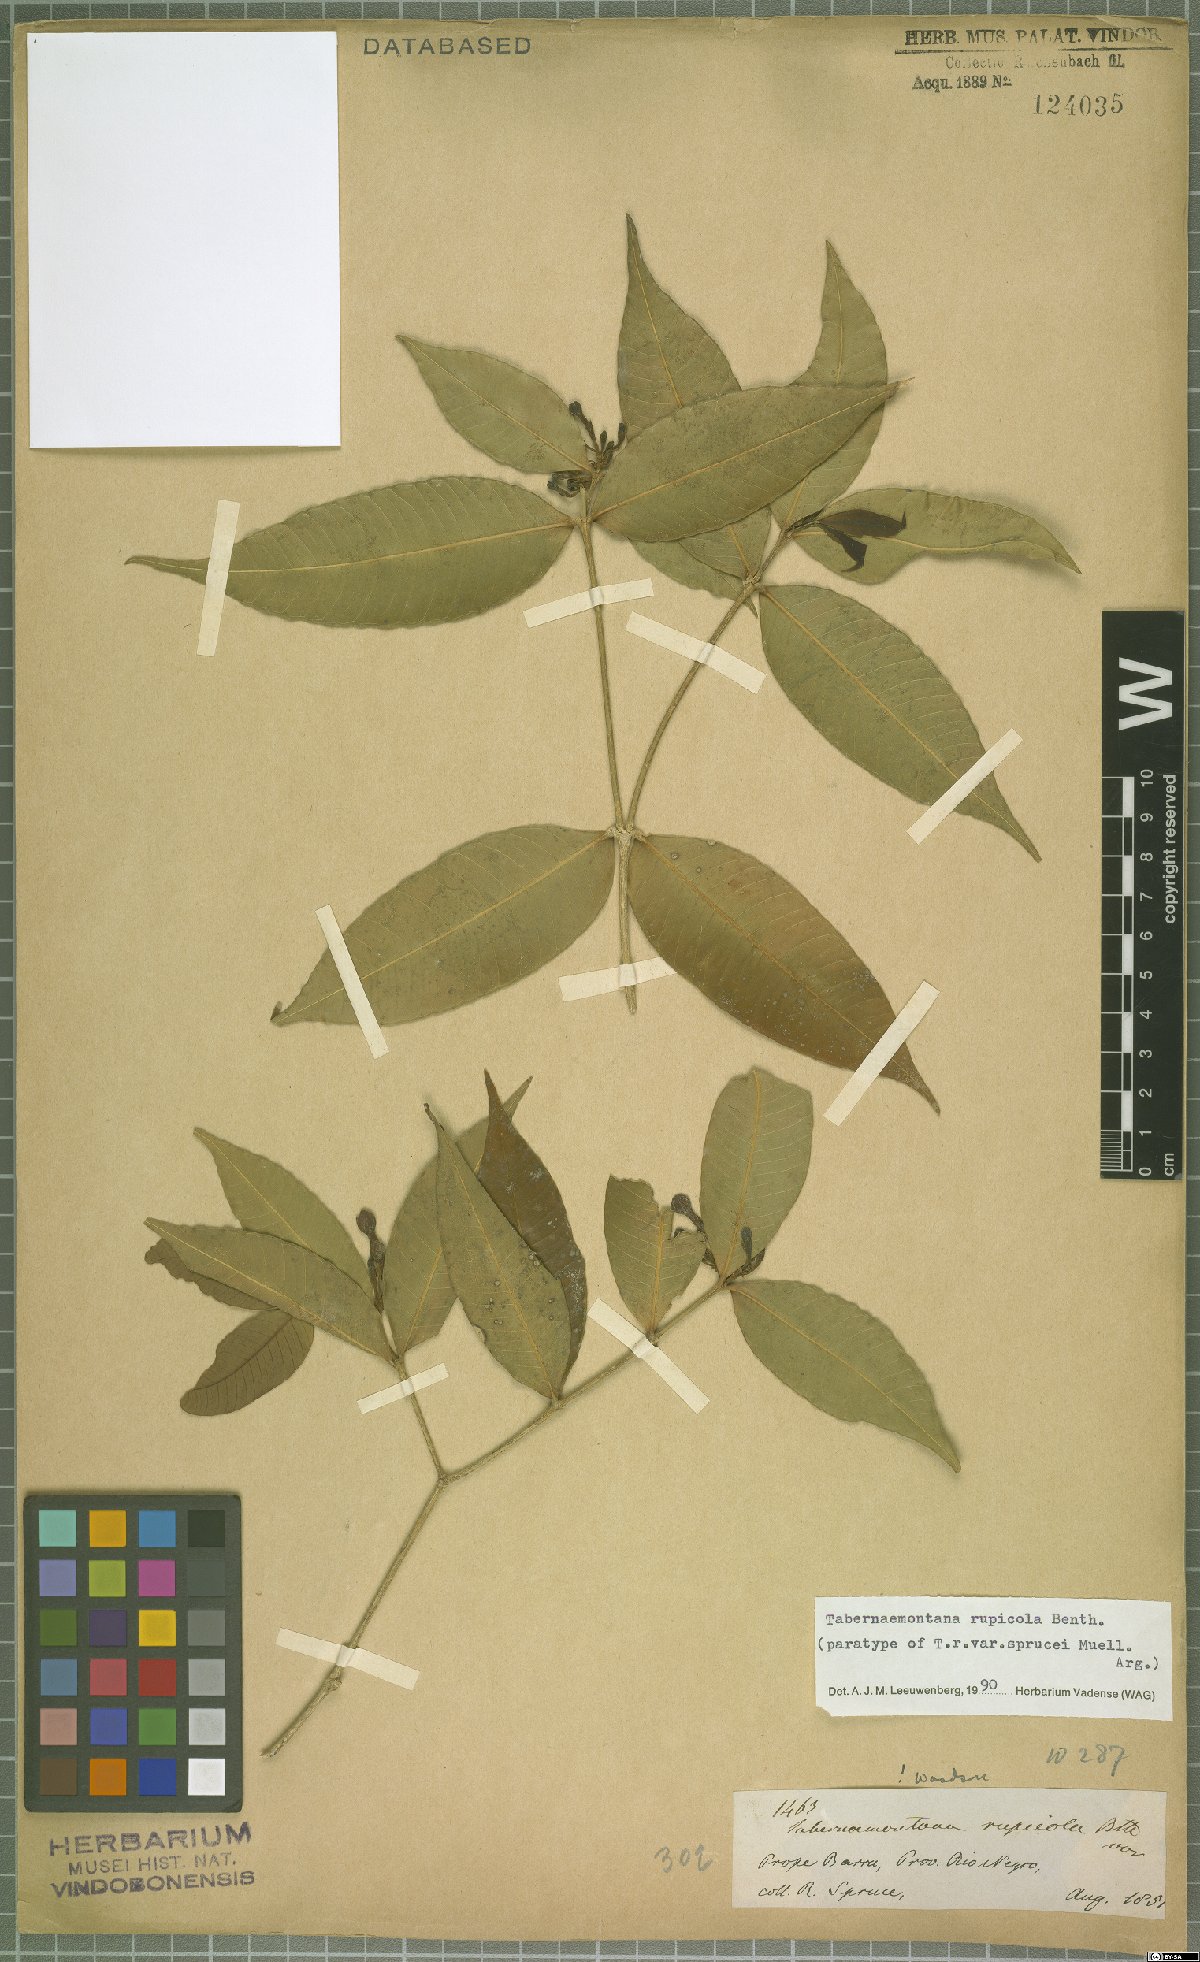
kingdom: Plantae
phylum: Tracheophyta
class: Magnoliopsida
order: Gentianales
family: Apocynaceae
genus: Tabernaemontana
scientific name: Tabernaemontana rupicola
